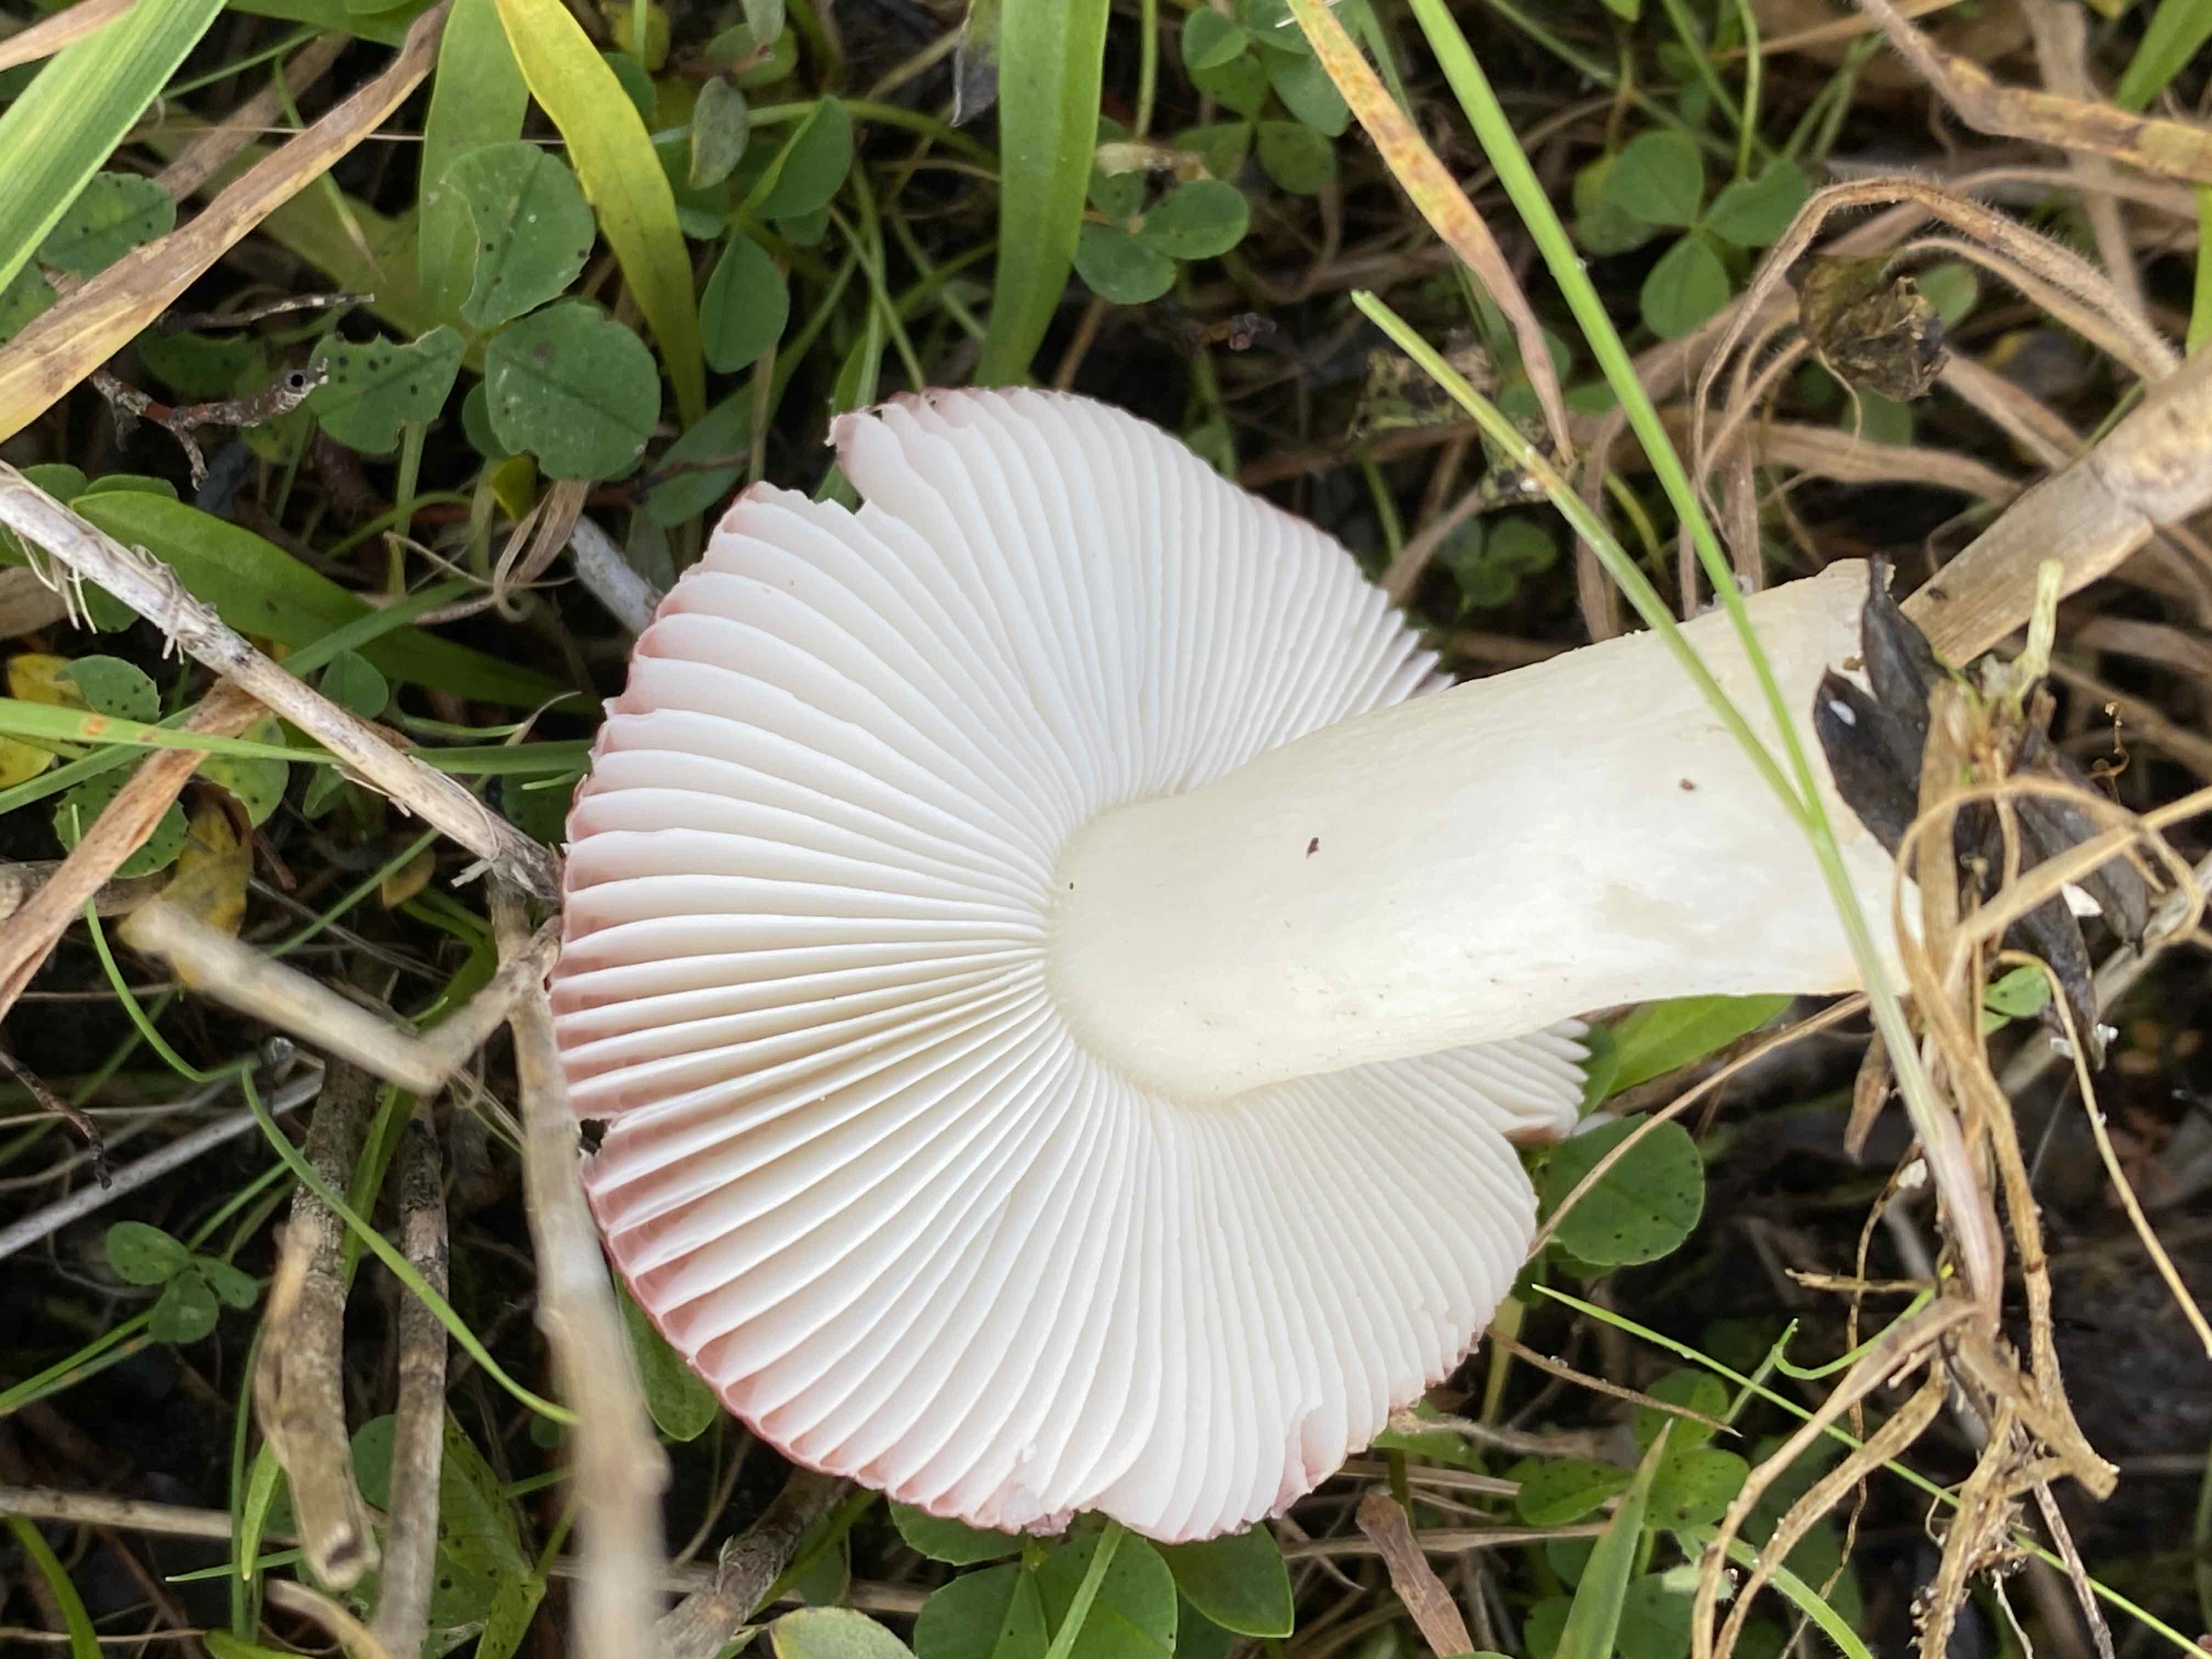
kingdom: Fungi
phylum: Basidiomycota
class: Agaricomycetes
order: Russulales
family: Russulaceae
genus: Russula
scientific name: Russula laccata
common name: klit-skørhat
